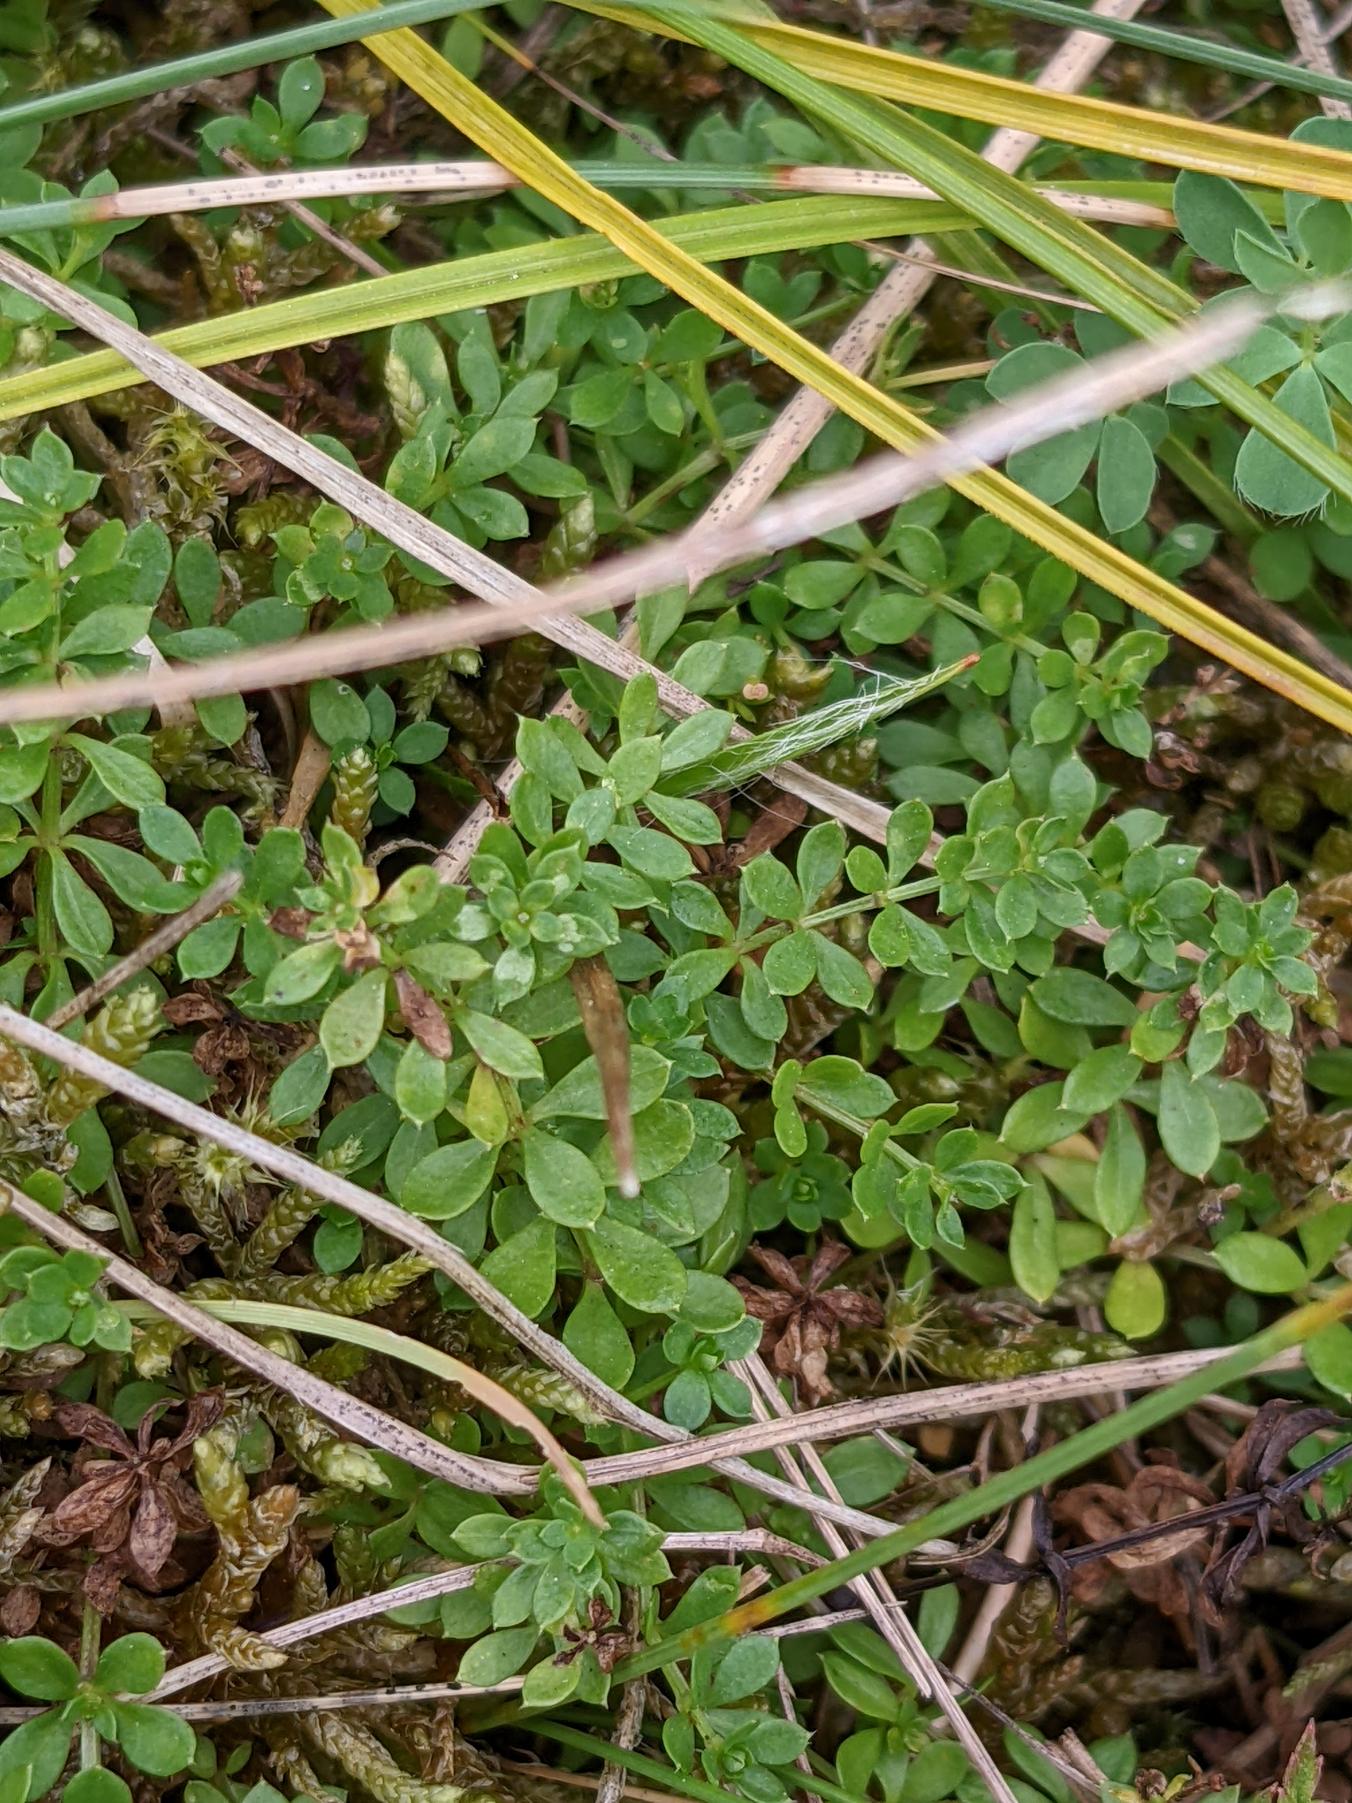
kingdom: Plantae
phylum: Tracheophyta
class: Magnoliopsida
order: Gentianales
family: Rubiaceae
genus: Galium
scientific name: Galium saxatile
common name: Lyng-snerre
